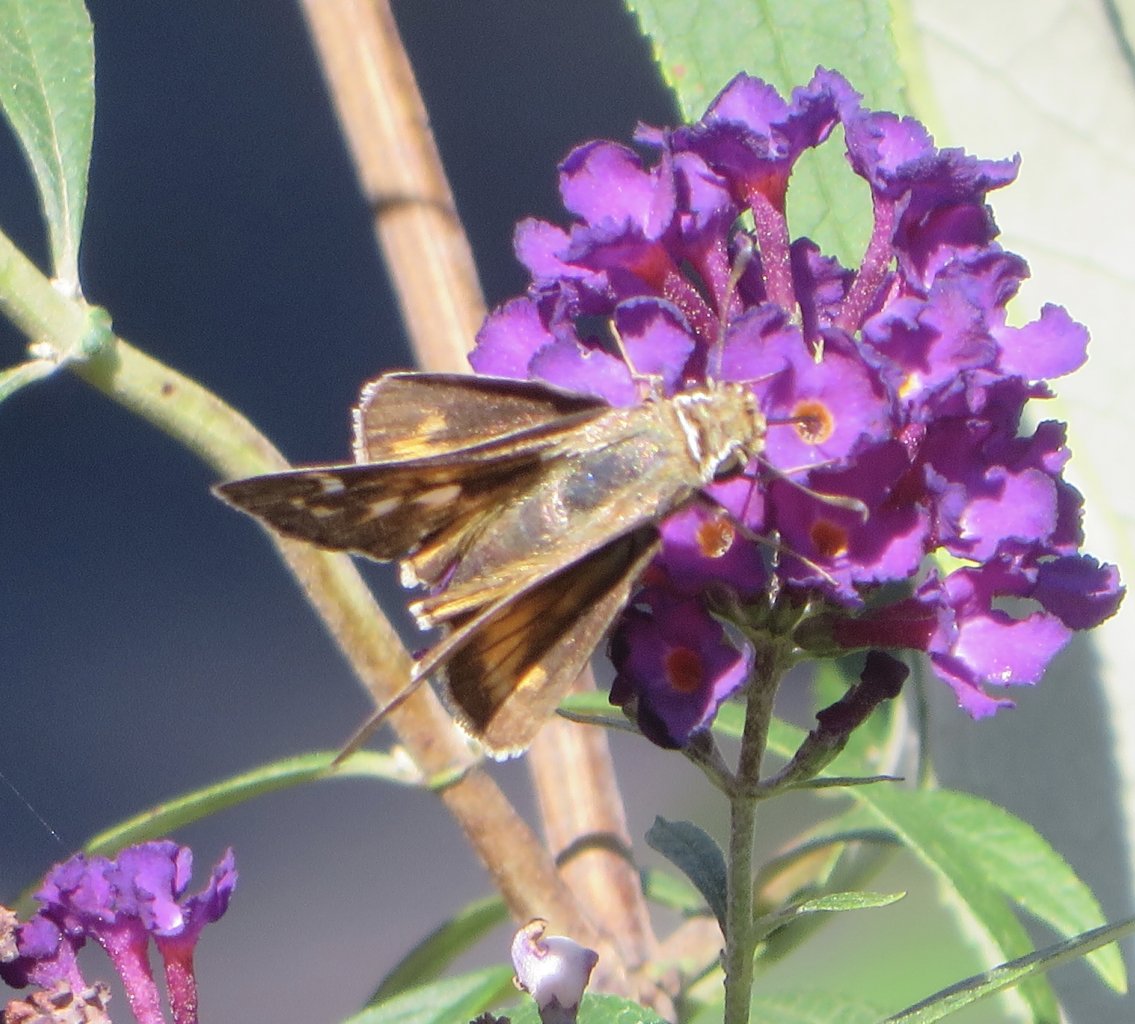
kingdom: Animalia
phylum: Arthropoda
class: Insecta
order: Lepidoptera
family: Hesperiidae
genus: Atalopedes
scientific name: Atalopedes campestris
